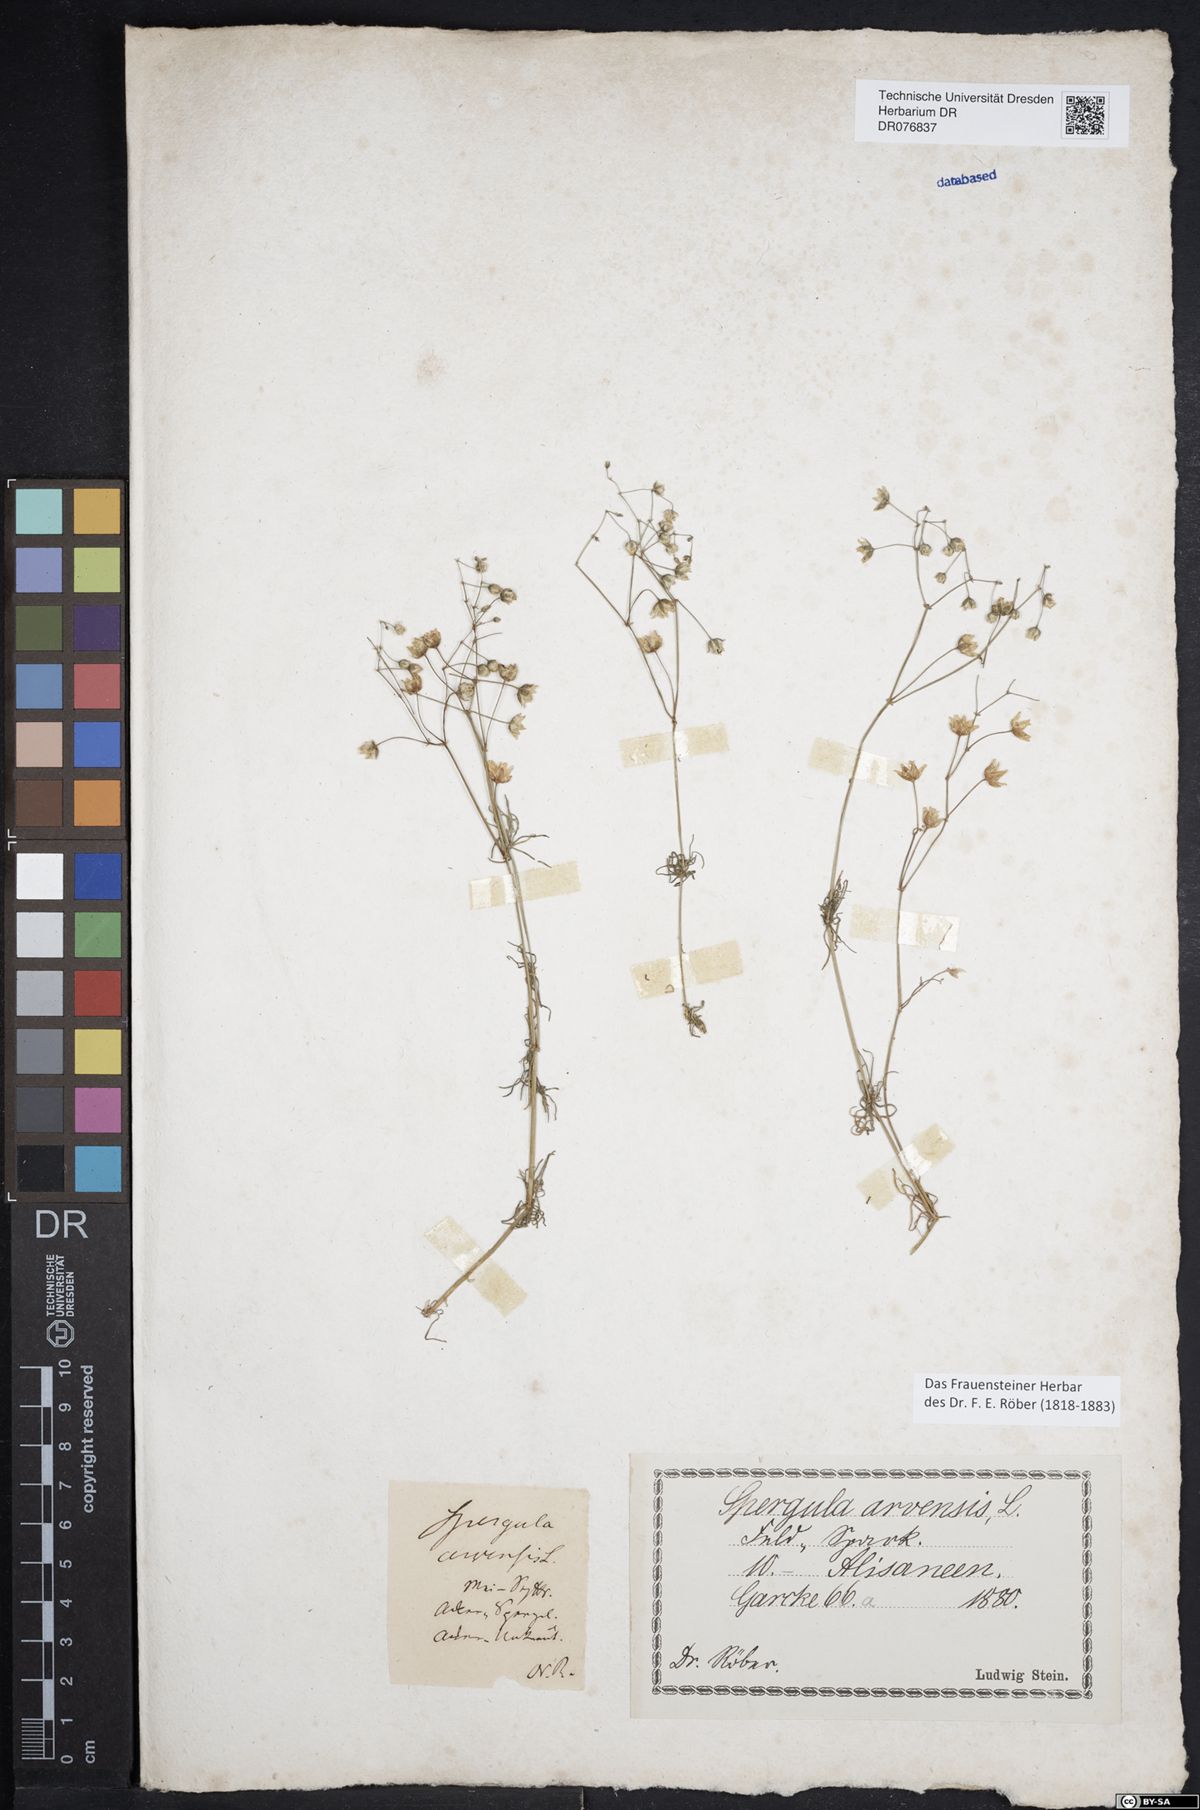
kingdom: Plantae
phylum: Tracheophyta
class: Magnoliopsida
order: Caryophyllales
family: Caryophyllaceae
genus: Spergula
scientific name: Spergula arvensis
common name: Corn spurrey
